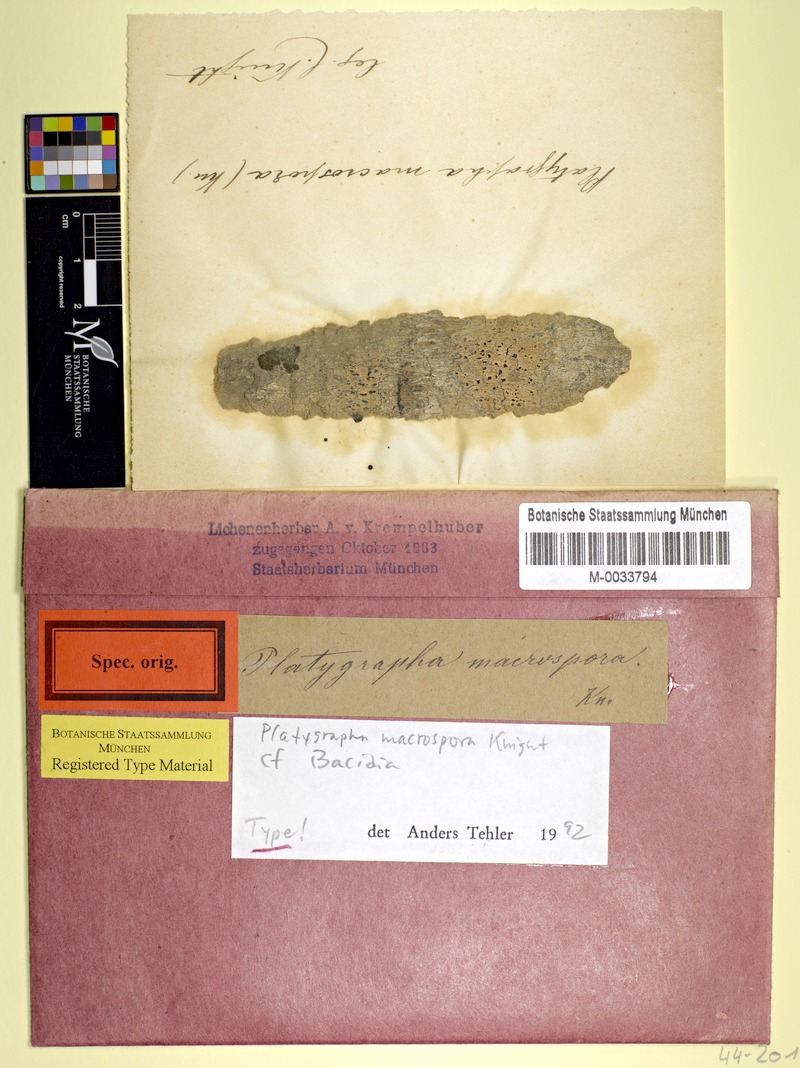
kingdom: Fungi
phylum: Ascomycota
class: Lecanoromycetes
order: Lecanorales
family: Ramalinaceae
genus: Bacidia
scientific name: Bacidia macrospora
